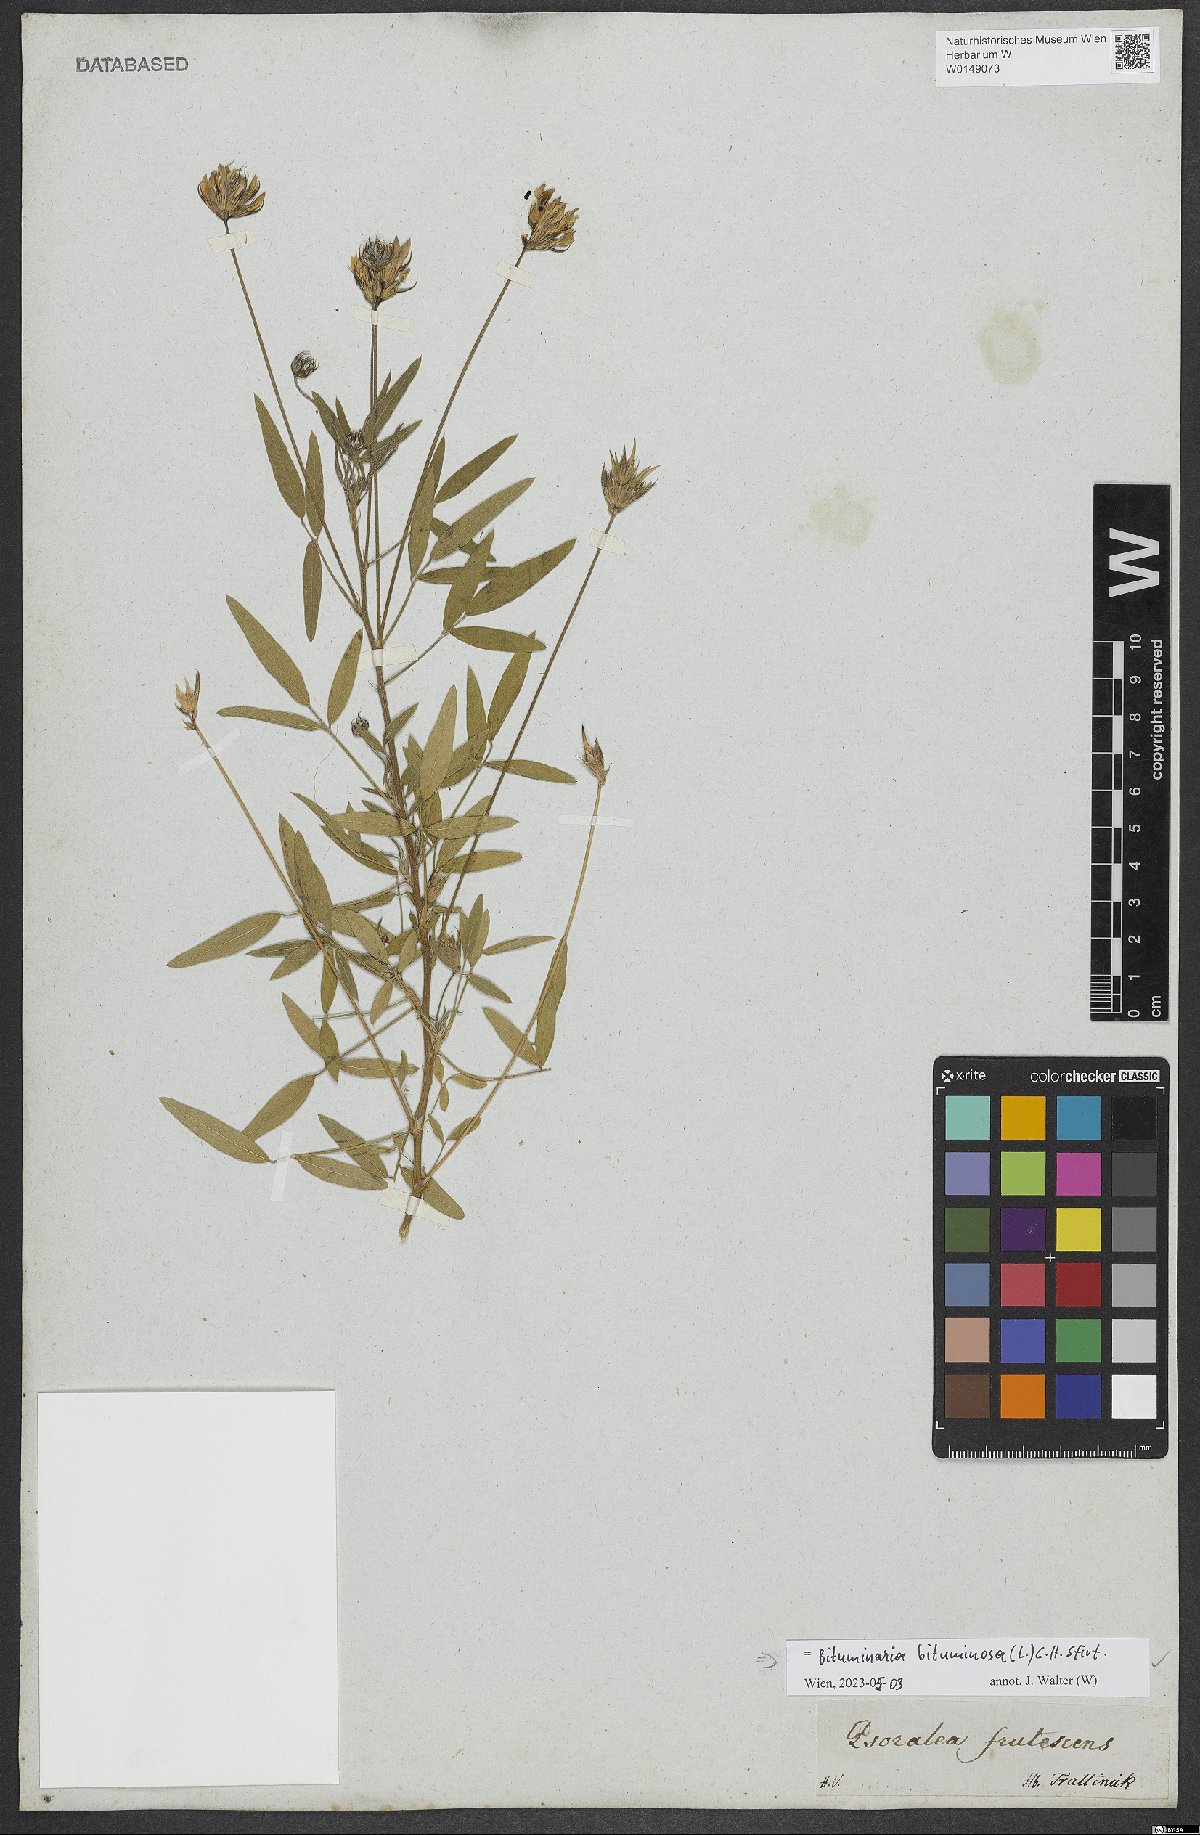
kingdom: Plantae
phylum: Tracheophyta
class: Magnoliopsida
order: Fabales
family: Fabaceae
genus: Bituminaria
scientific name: Bituminaria bituminosa
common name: Arabian pea
